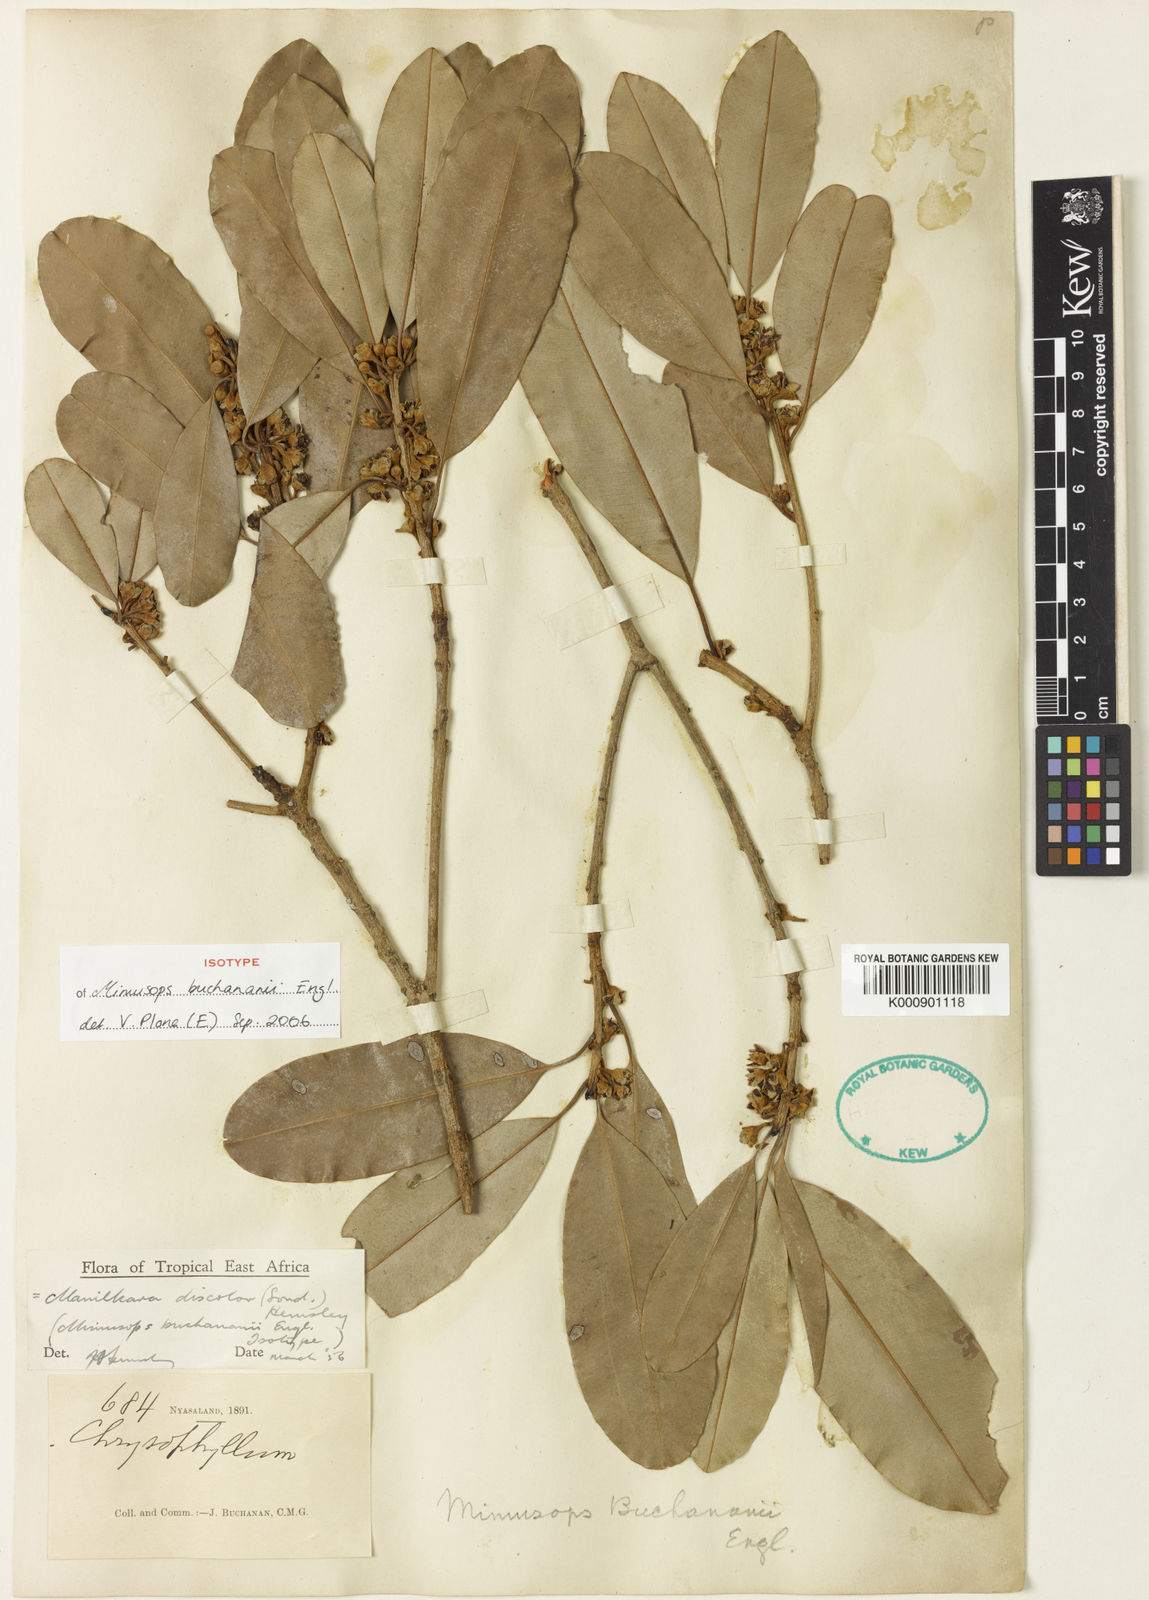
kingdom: Plantae
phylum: Tracheophyta
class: Magnoliopsida
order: Ericales
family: Sapotaceae
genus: Manilkara
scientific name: Manilkara discolor
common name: Forest milkberry
